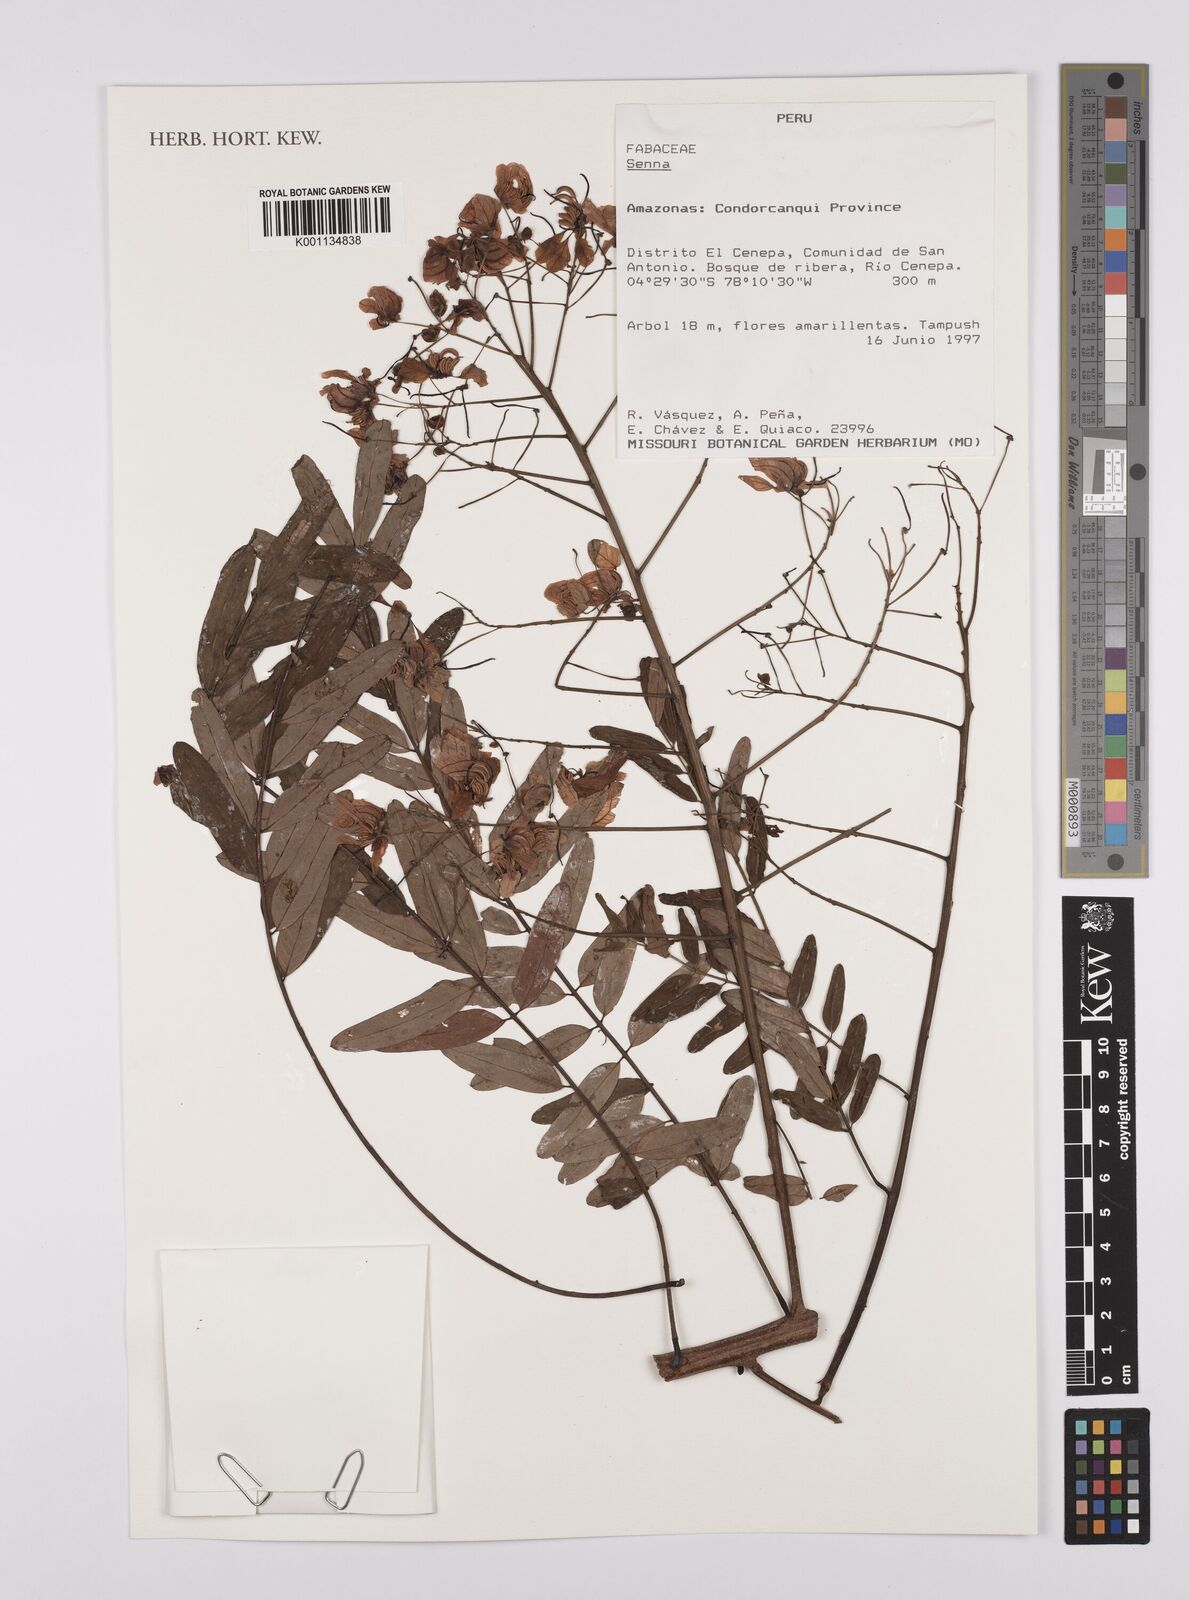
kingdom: Plantae
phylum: Tracheophyta
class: Magnoliopsida
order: Fabales
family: Fabaceae
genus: Senna
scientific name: Senna
